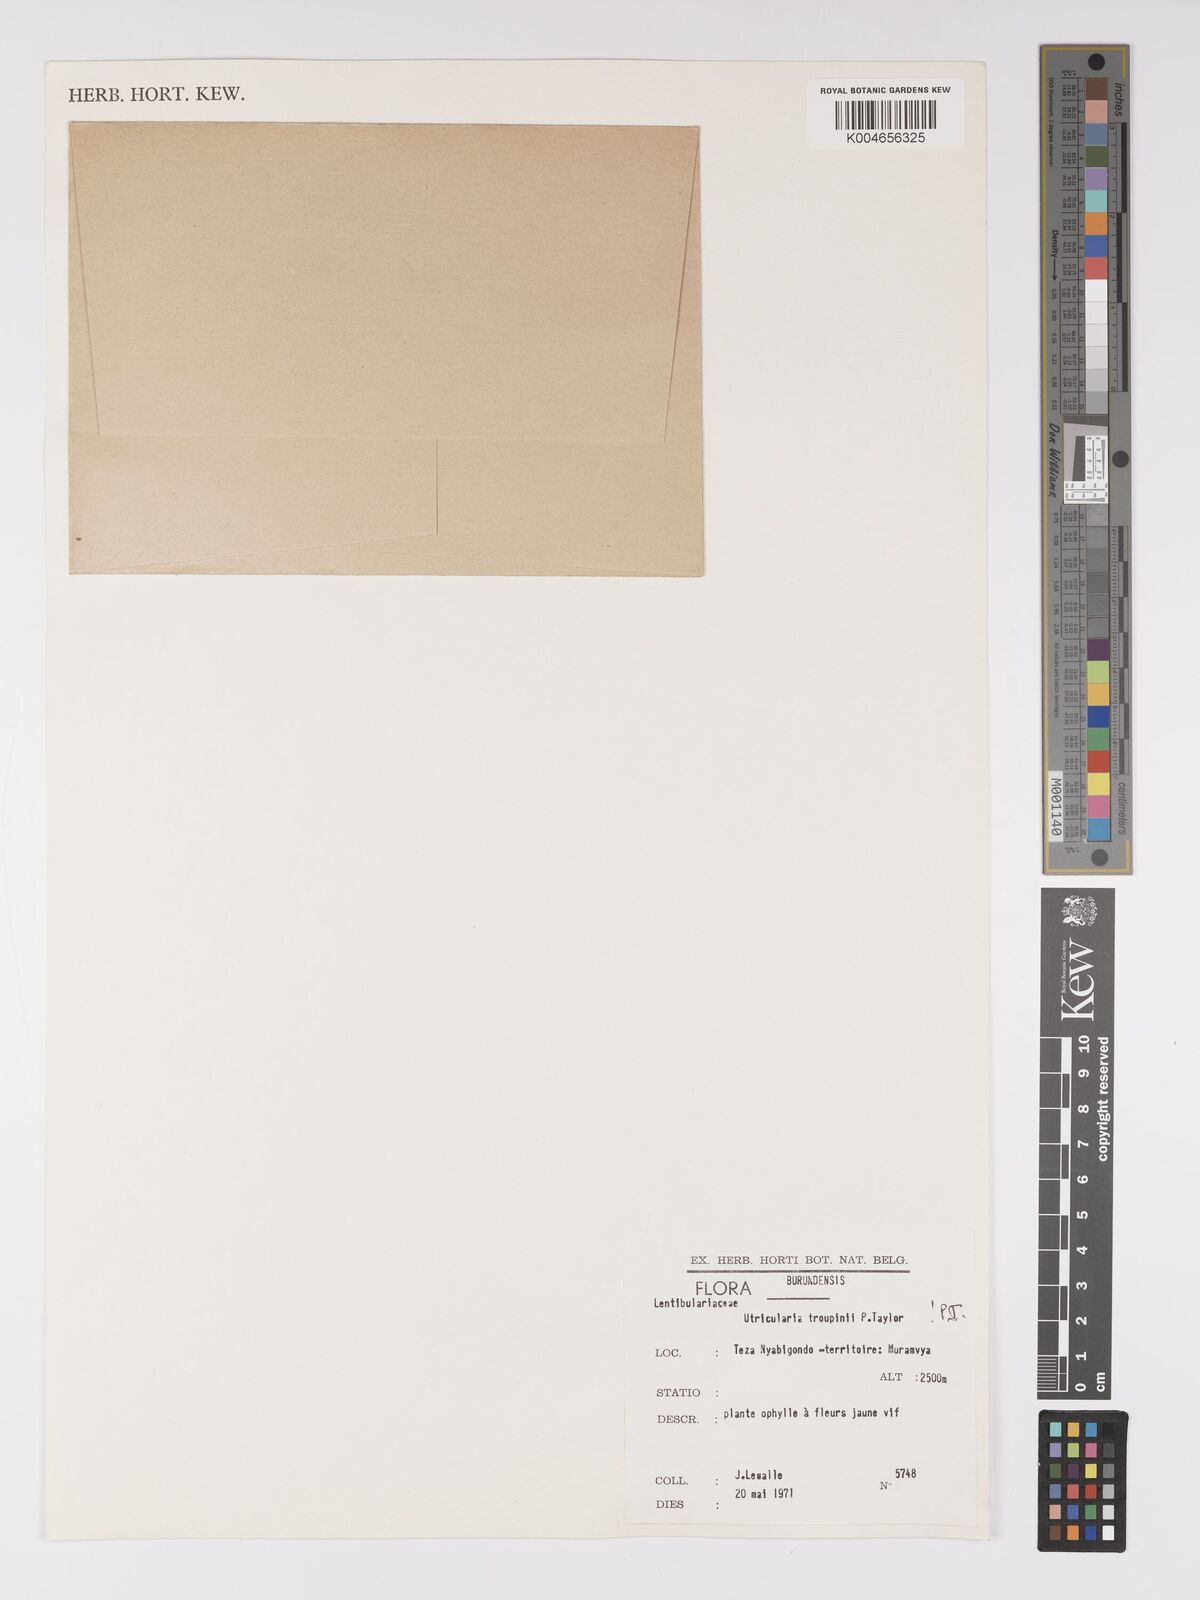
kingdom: Plantae
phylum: Tracheophyta
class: Magnoliopsida
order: Lamiales
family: Lentibulariaceae
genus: Utricularia
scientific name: Utricularia troupinii
